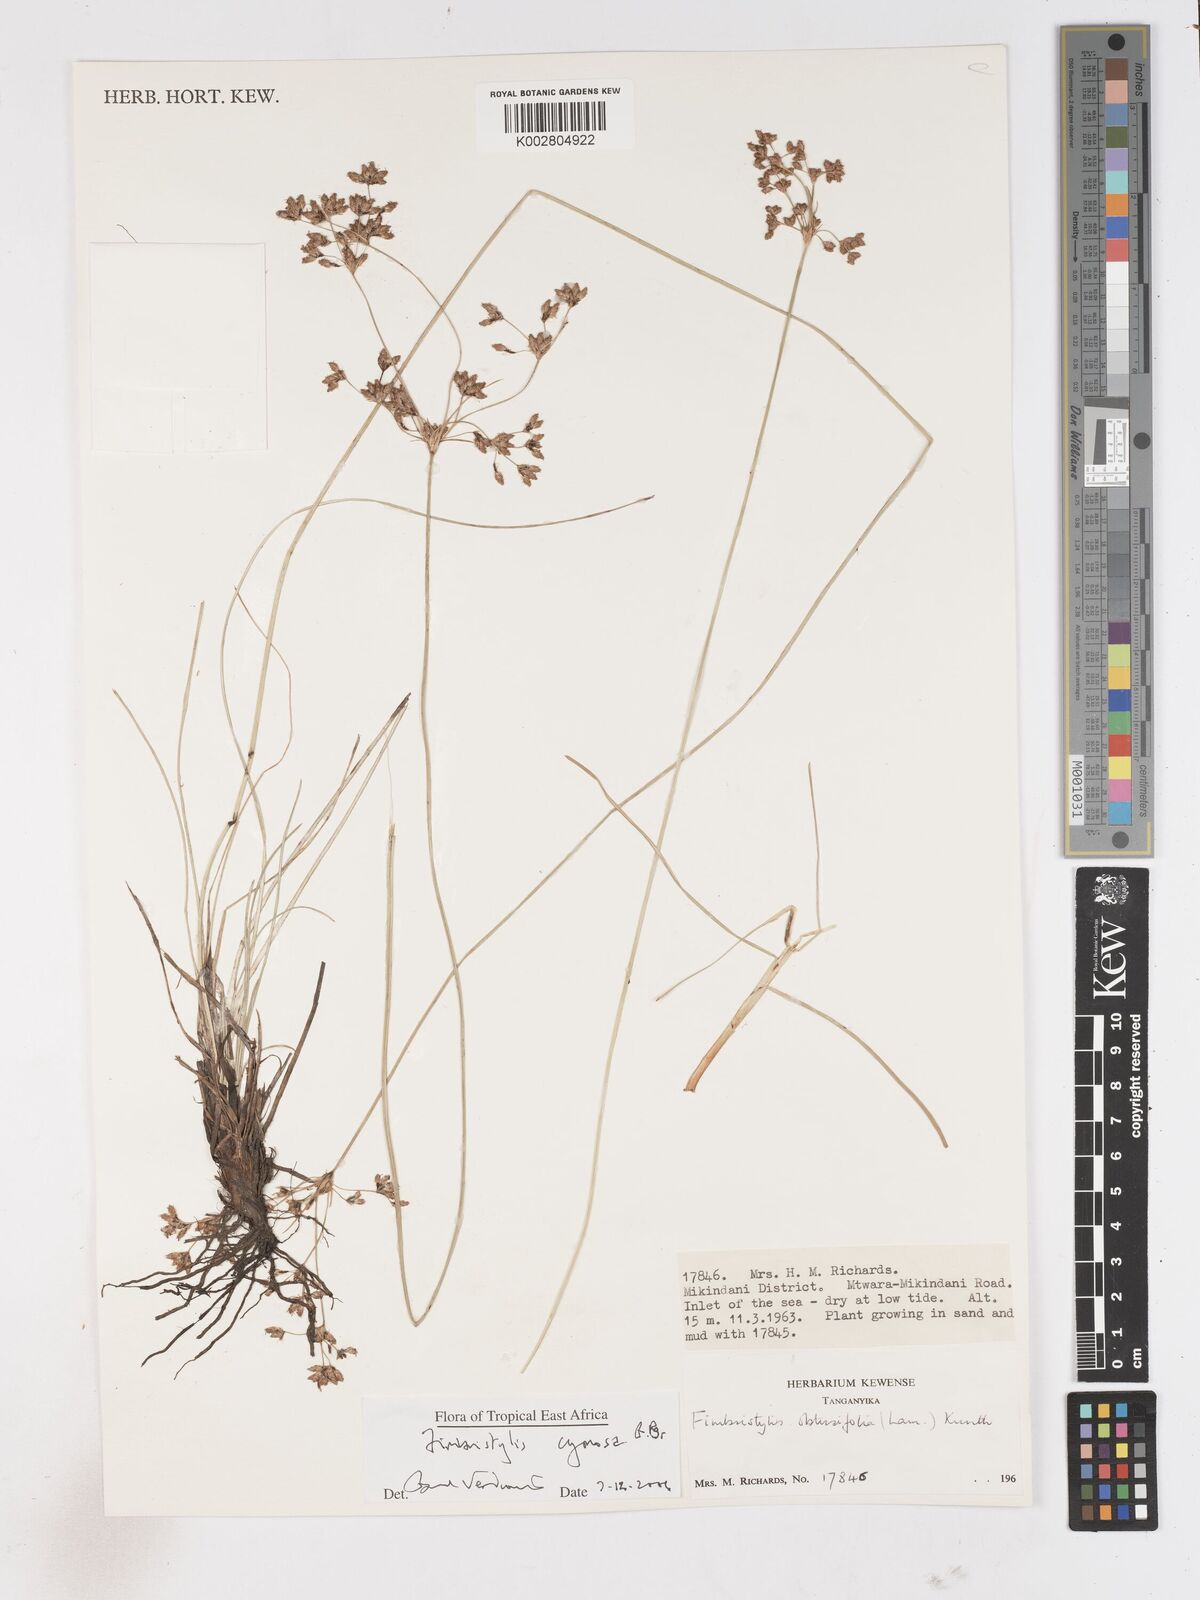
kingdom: Plantae
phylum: Tracheophyta
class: Liliopsida
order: Poales
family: Cyperaceae
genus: Fimbristylis
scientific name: Fimbristylis cymosa
